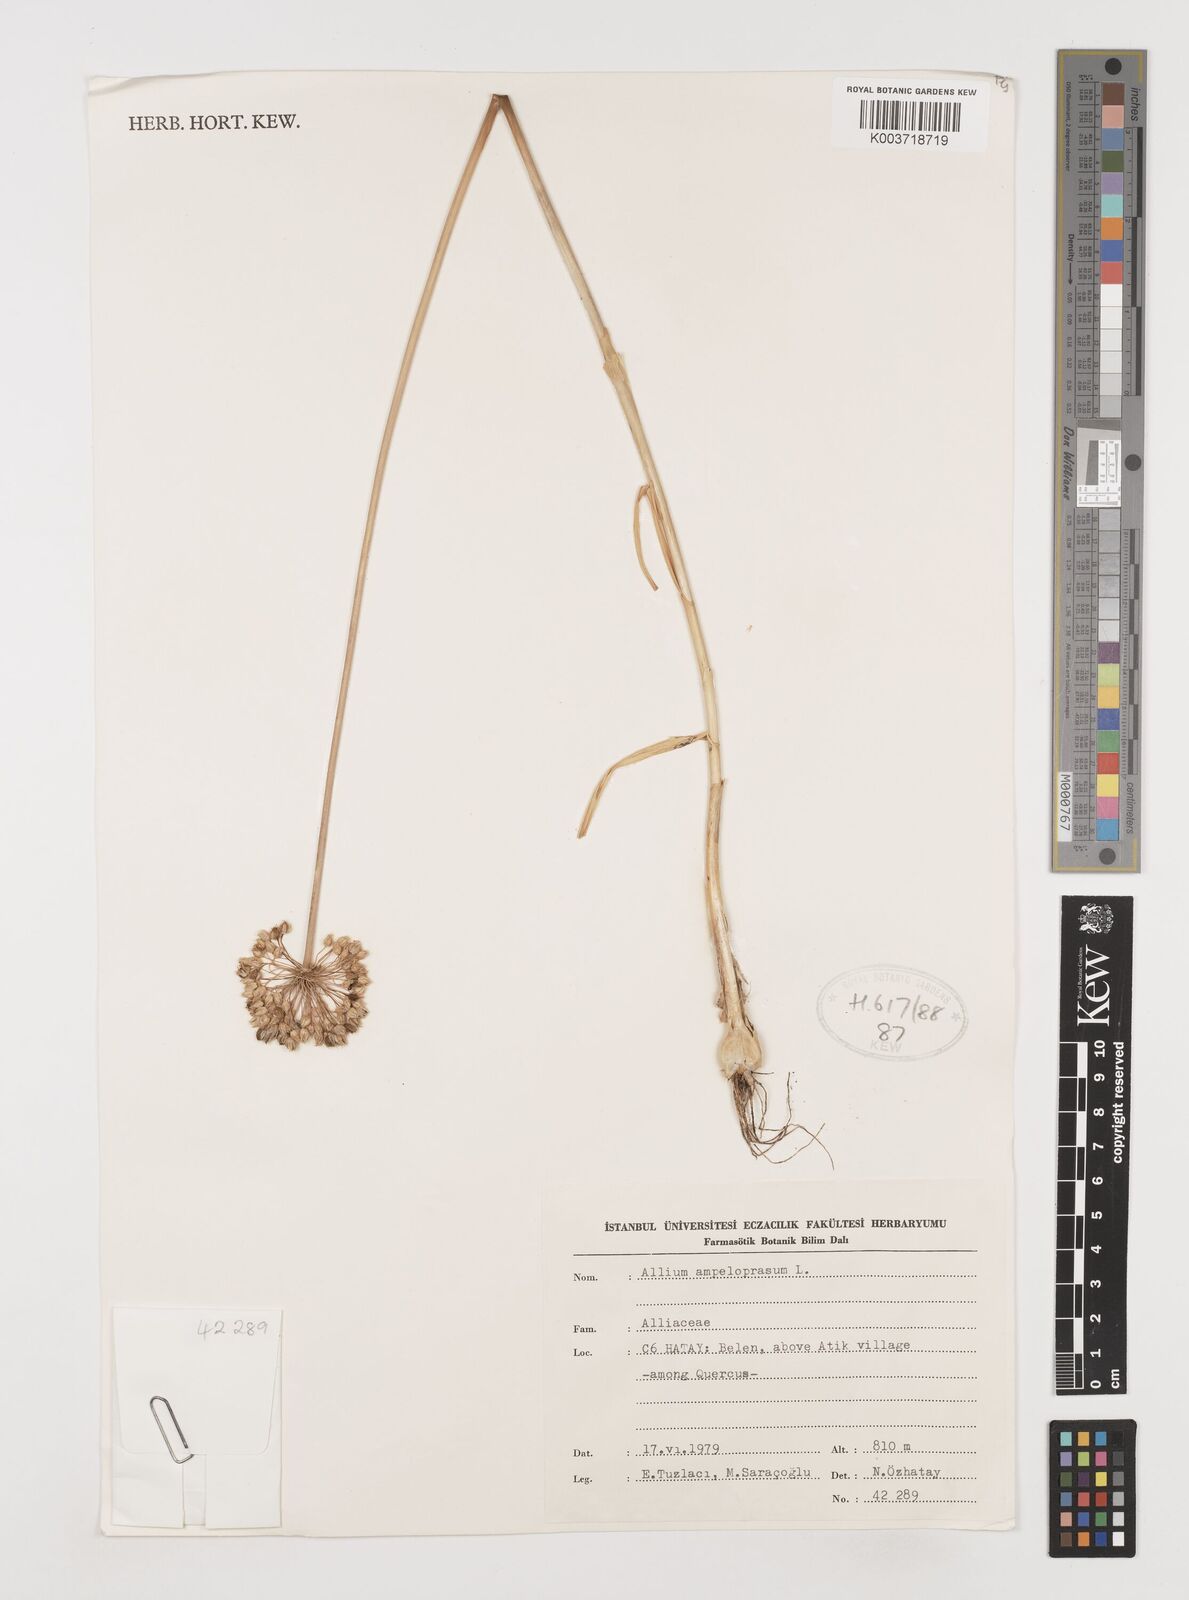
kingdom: Plantae
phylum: Tracheophyta
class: Liliopsida
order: Asparagales
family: Amaryllidaceae
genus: Allium
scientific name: Allium ampeloprasum
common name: Wild leek
